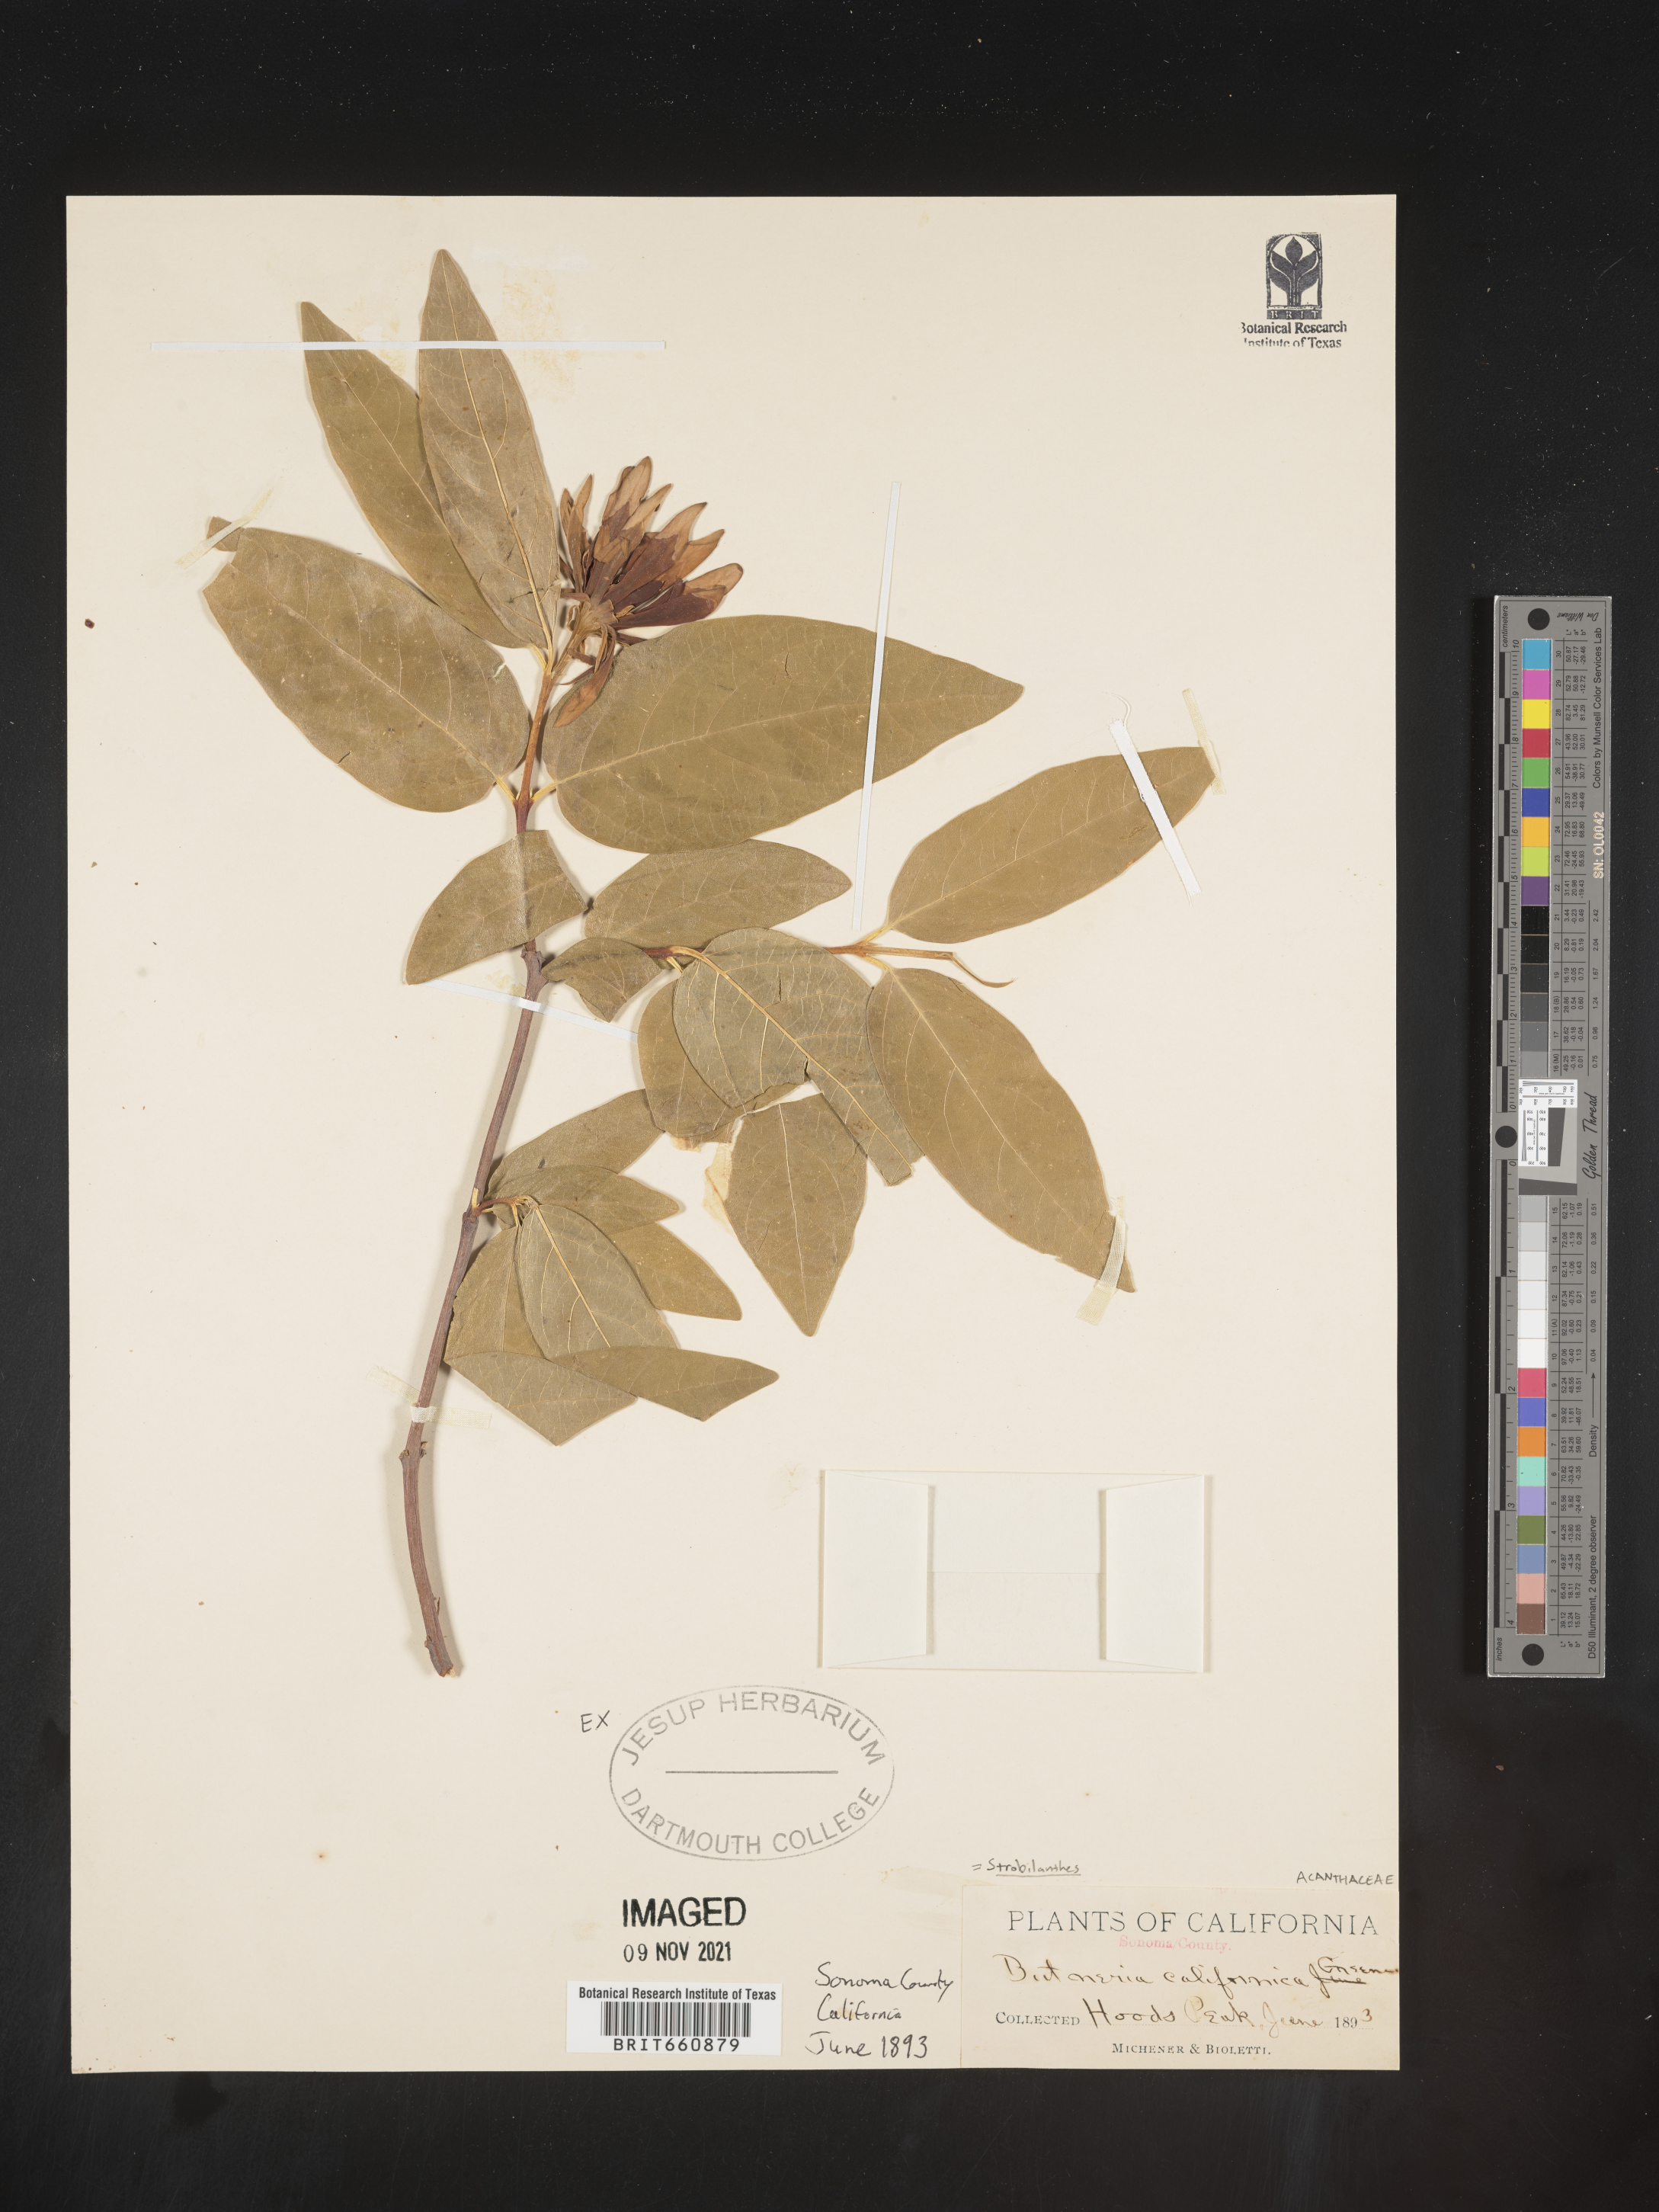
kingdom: Plantae
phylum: Tracheophyta
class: Magnoliopsida
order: Lamiales
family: Acanthaceae
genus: Strobilanthes
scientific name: Strobilanthes
